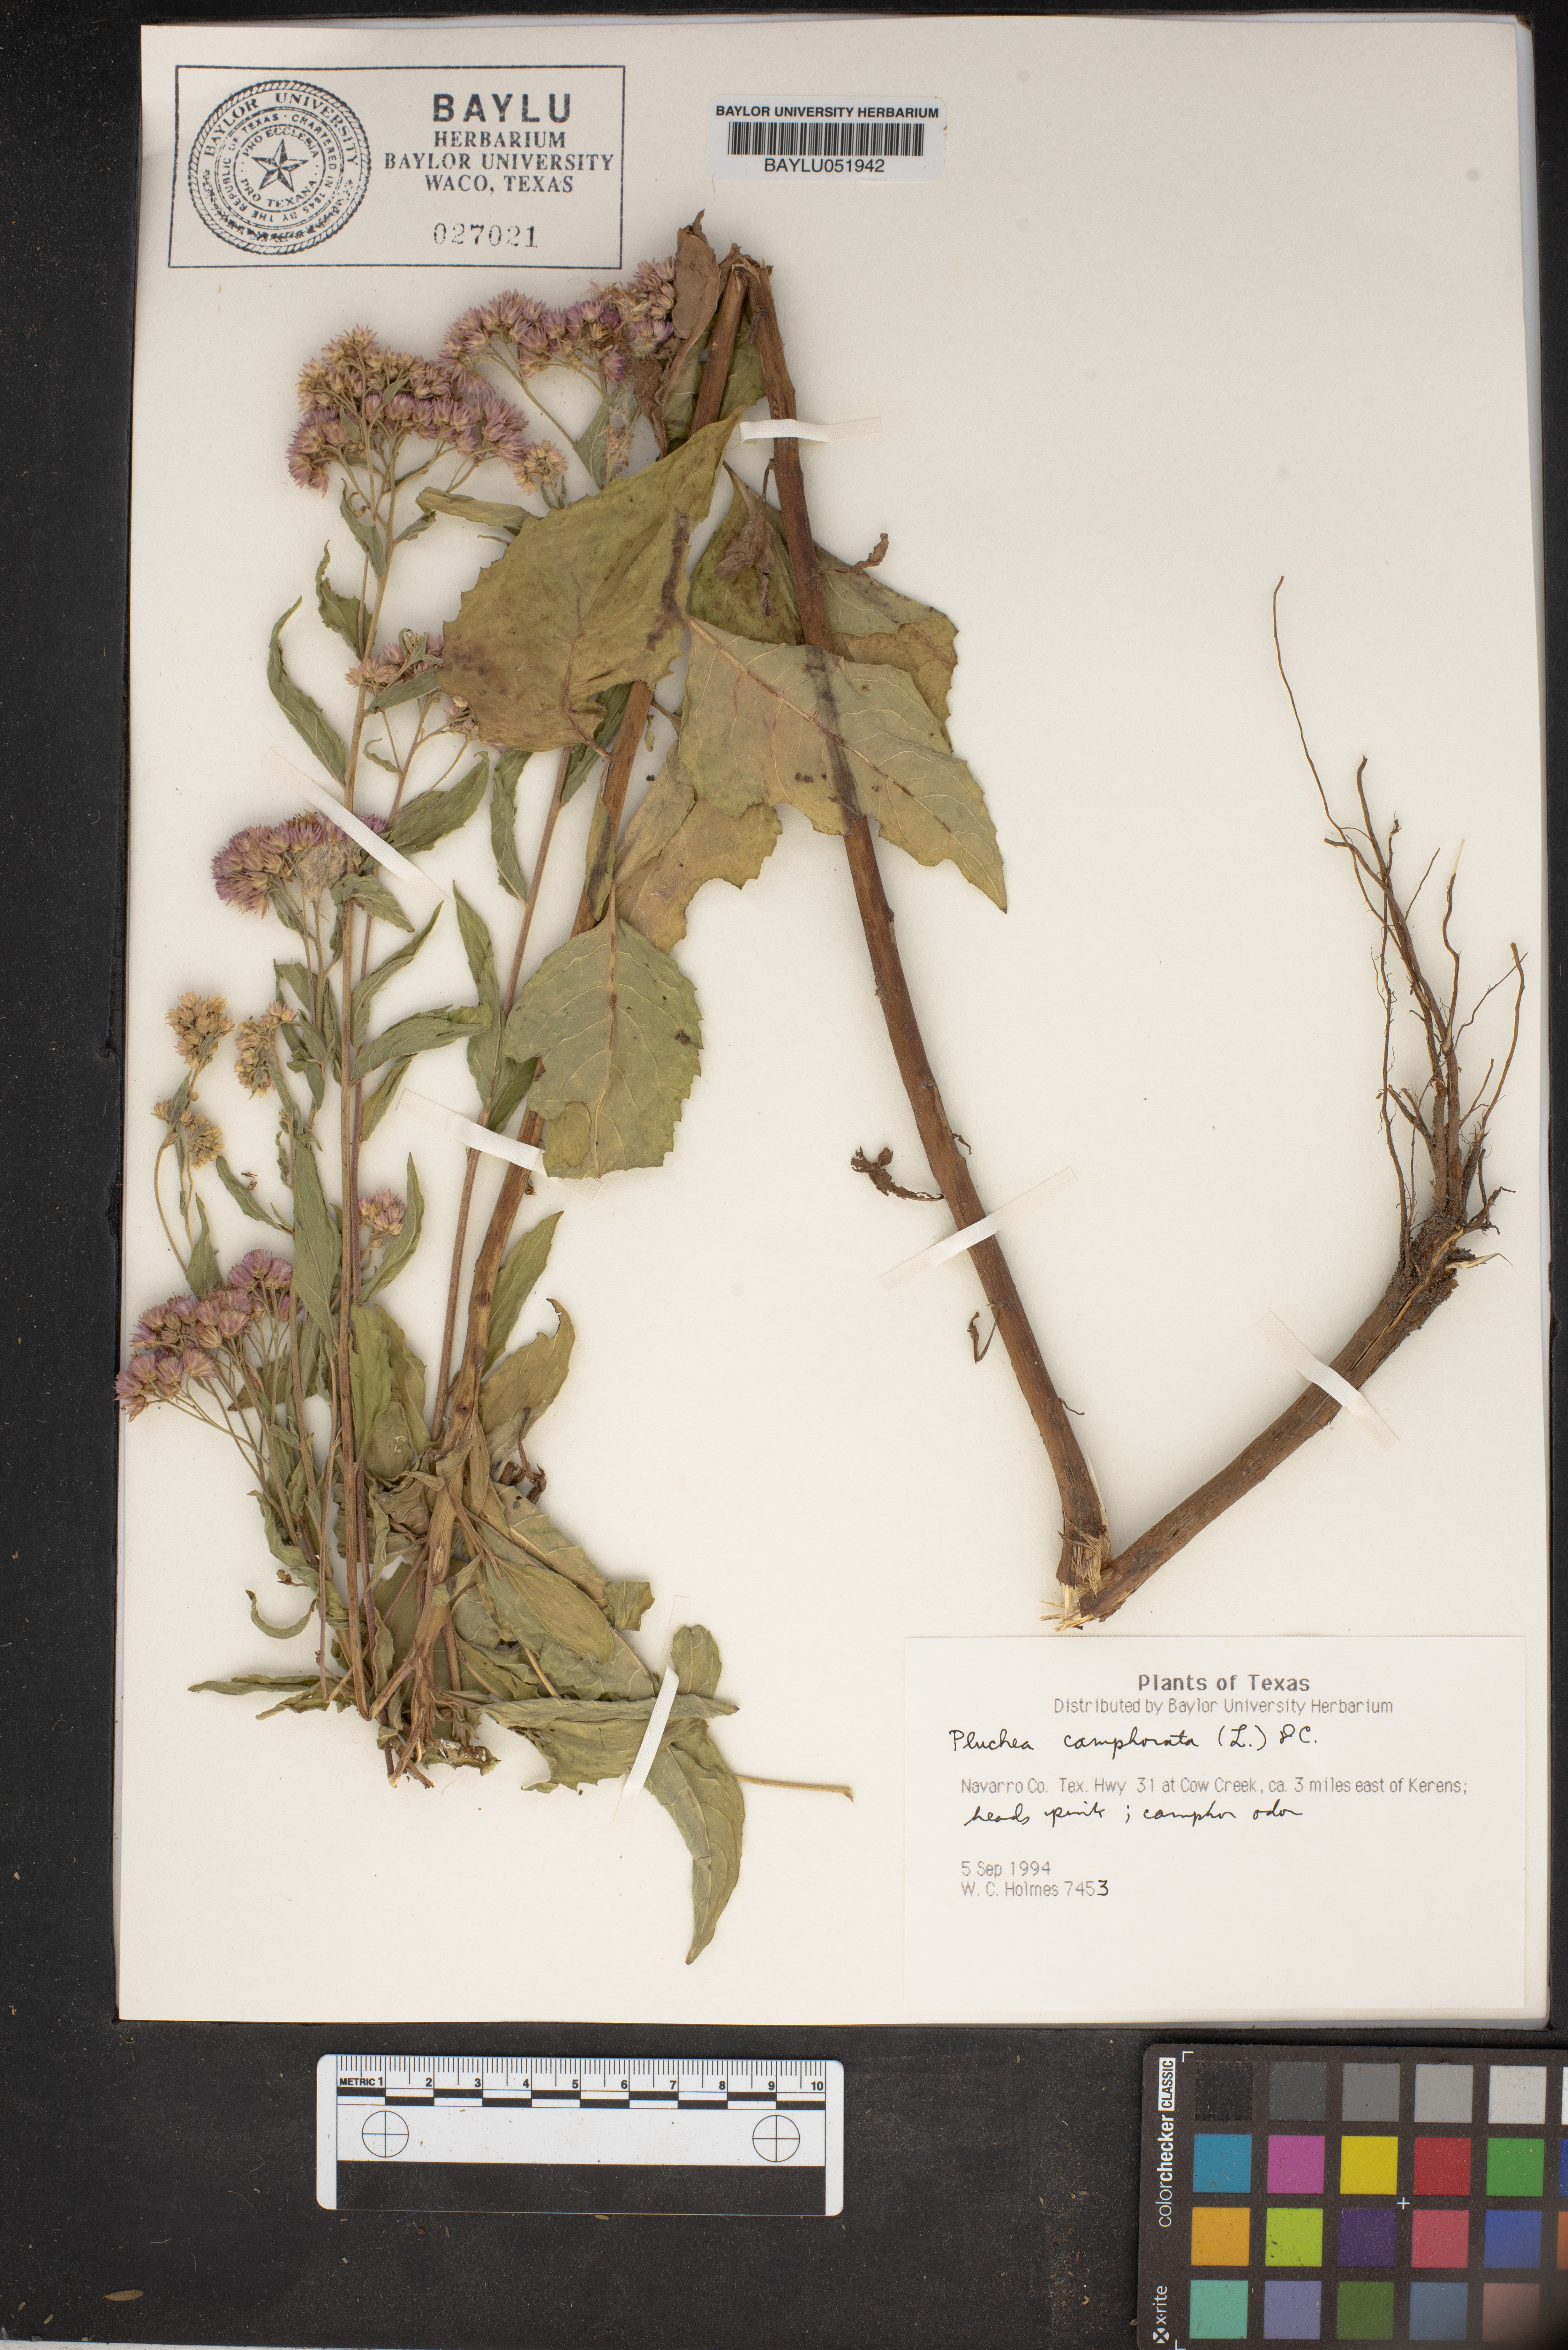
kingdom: Plantae
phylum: Tracheophyta
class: Magnoliopsida
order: Asterales
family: Asteraceae
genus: Pluchea
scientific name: Pluchea camphorata
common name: Camphor pluchea
